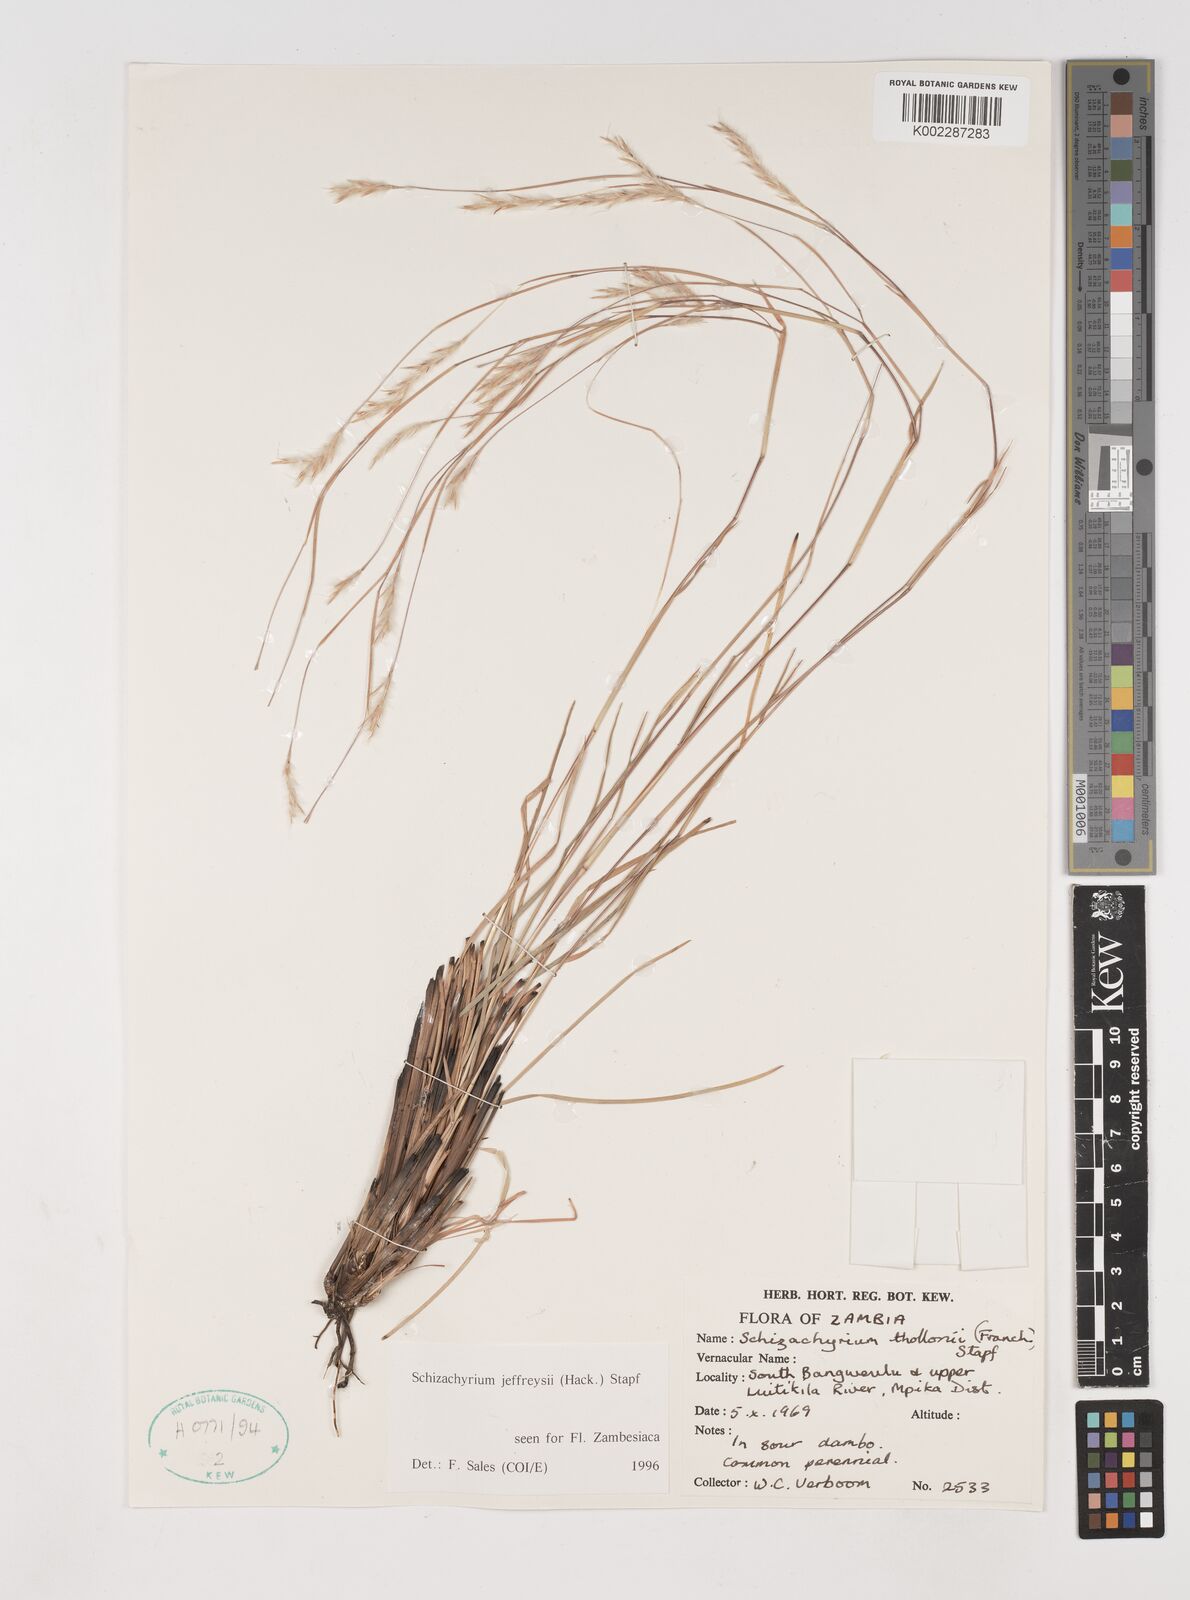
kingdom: Plantae
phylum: Tracheophyta
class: Liliopsida
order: Poales
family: Poaceae
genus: Schizachyrium
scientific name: Schizachyrium jeffreysii
